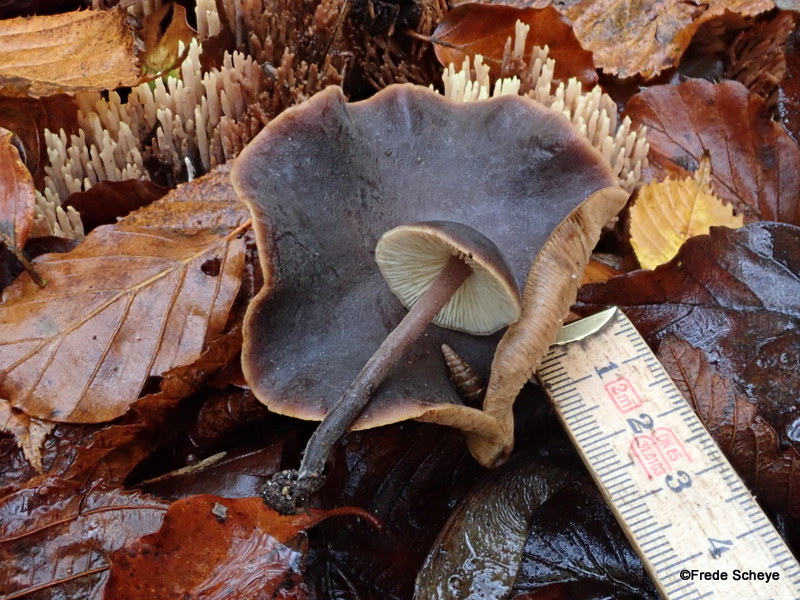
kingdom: Fungi
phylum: Basidiomycota
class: Agaricomycetes
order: Agaricales
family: Macrocystidiaceae
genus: Macrocystidia
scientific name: Macrocystidia cucumis
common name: agurkehat
